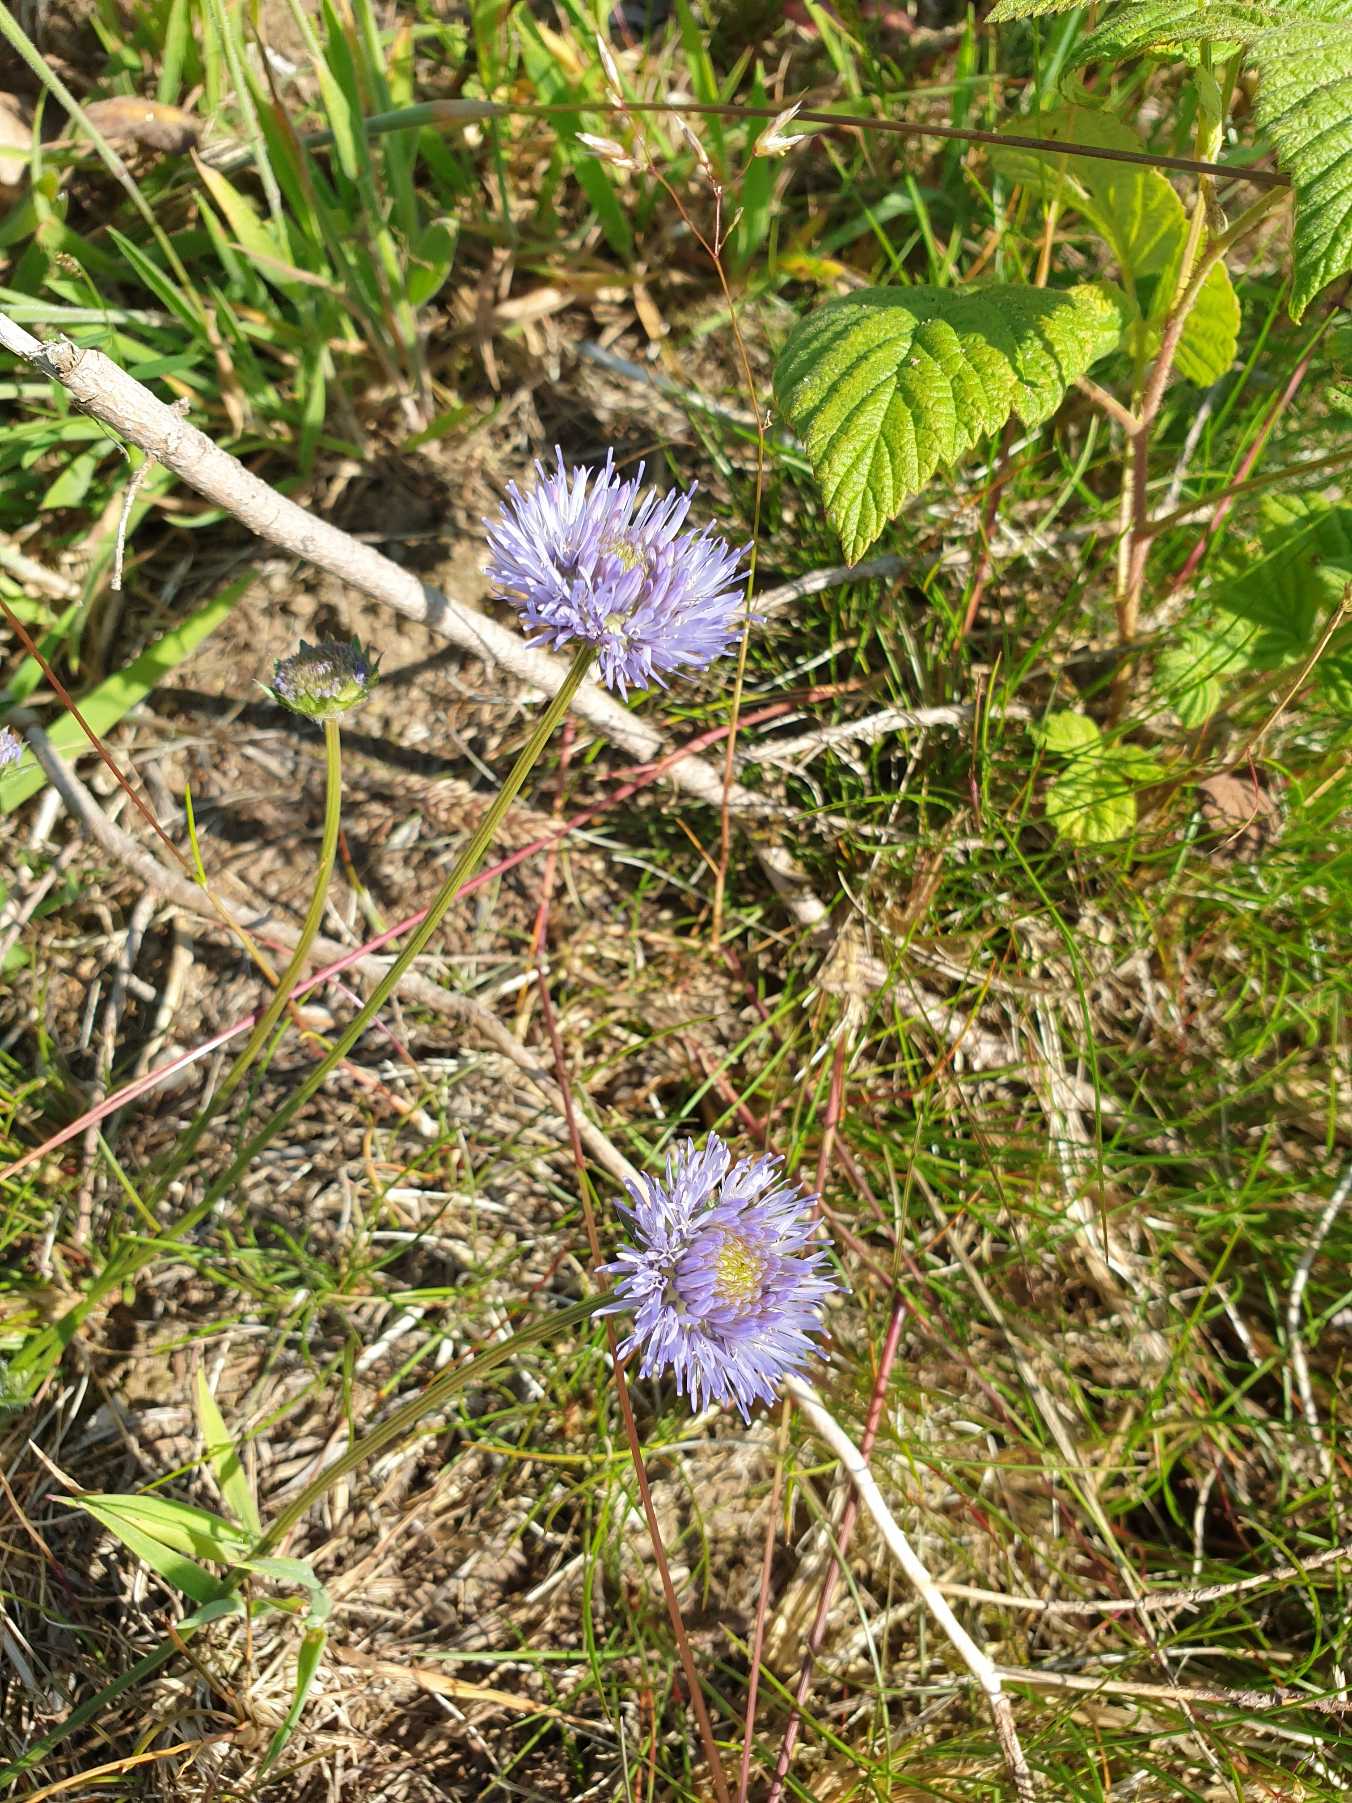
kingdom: Plantae
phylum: Tracheophyta
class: Magnoliopsida
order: Asterales
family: Campanulaceae
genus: Jasione
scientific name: Jasione montana
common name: Blåmunke
